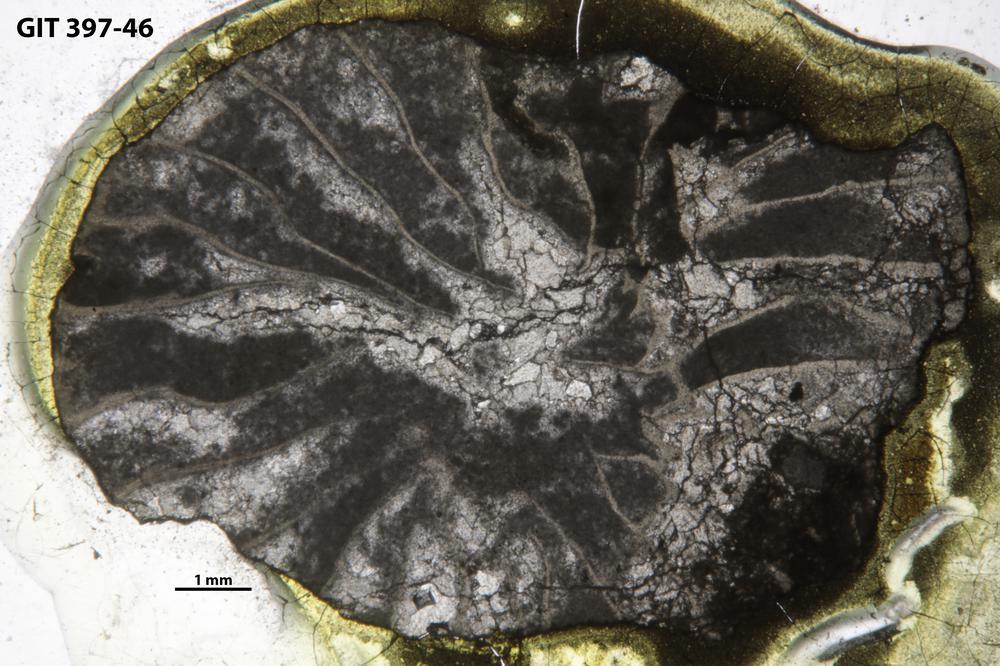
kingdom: Animalia
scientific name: Animalia
